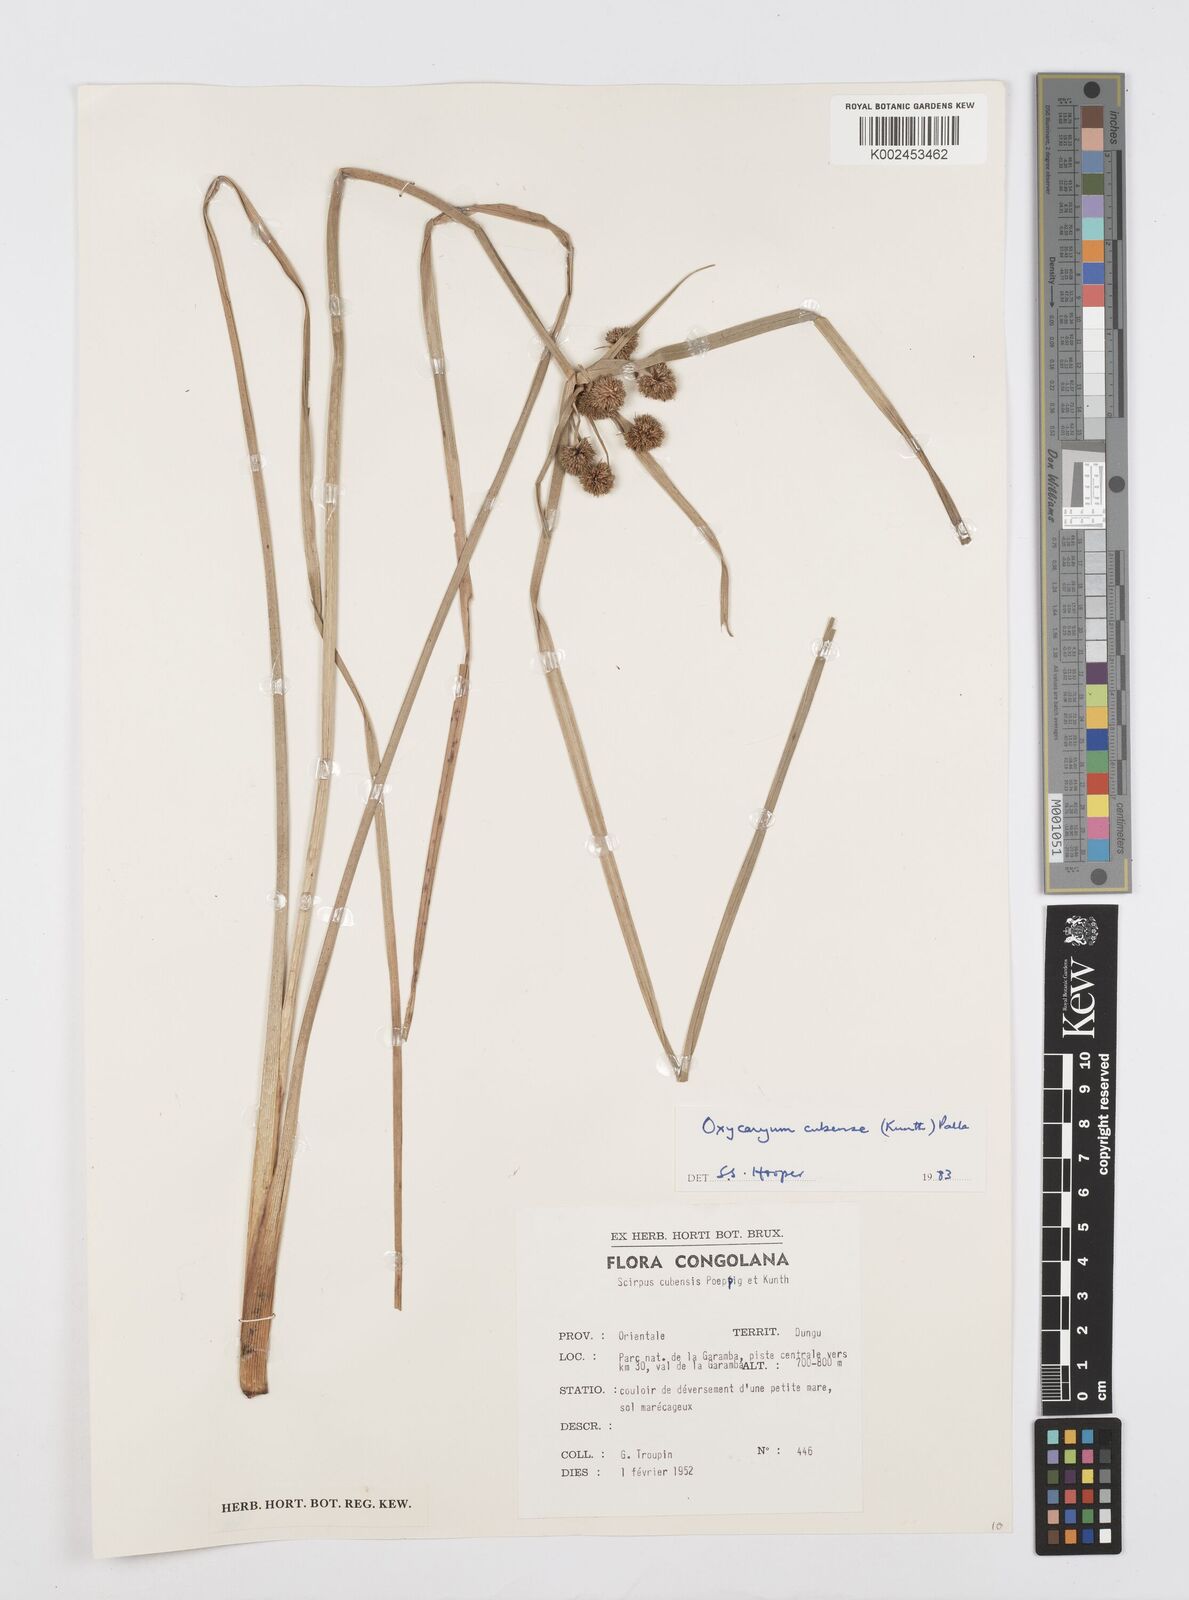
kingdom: Plantae
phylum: Tracheophyta
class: Liliopsida
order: Poales
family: Cyperaceae
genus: Cyperus
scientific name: Cyperus elegans
